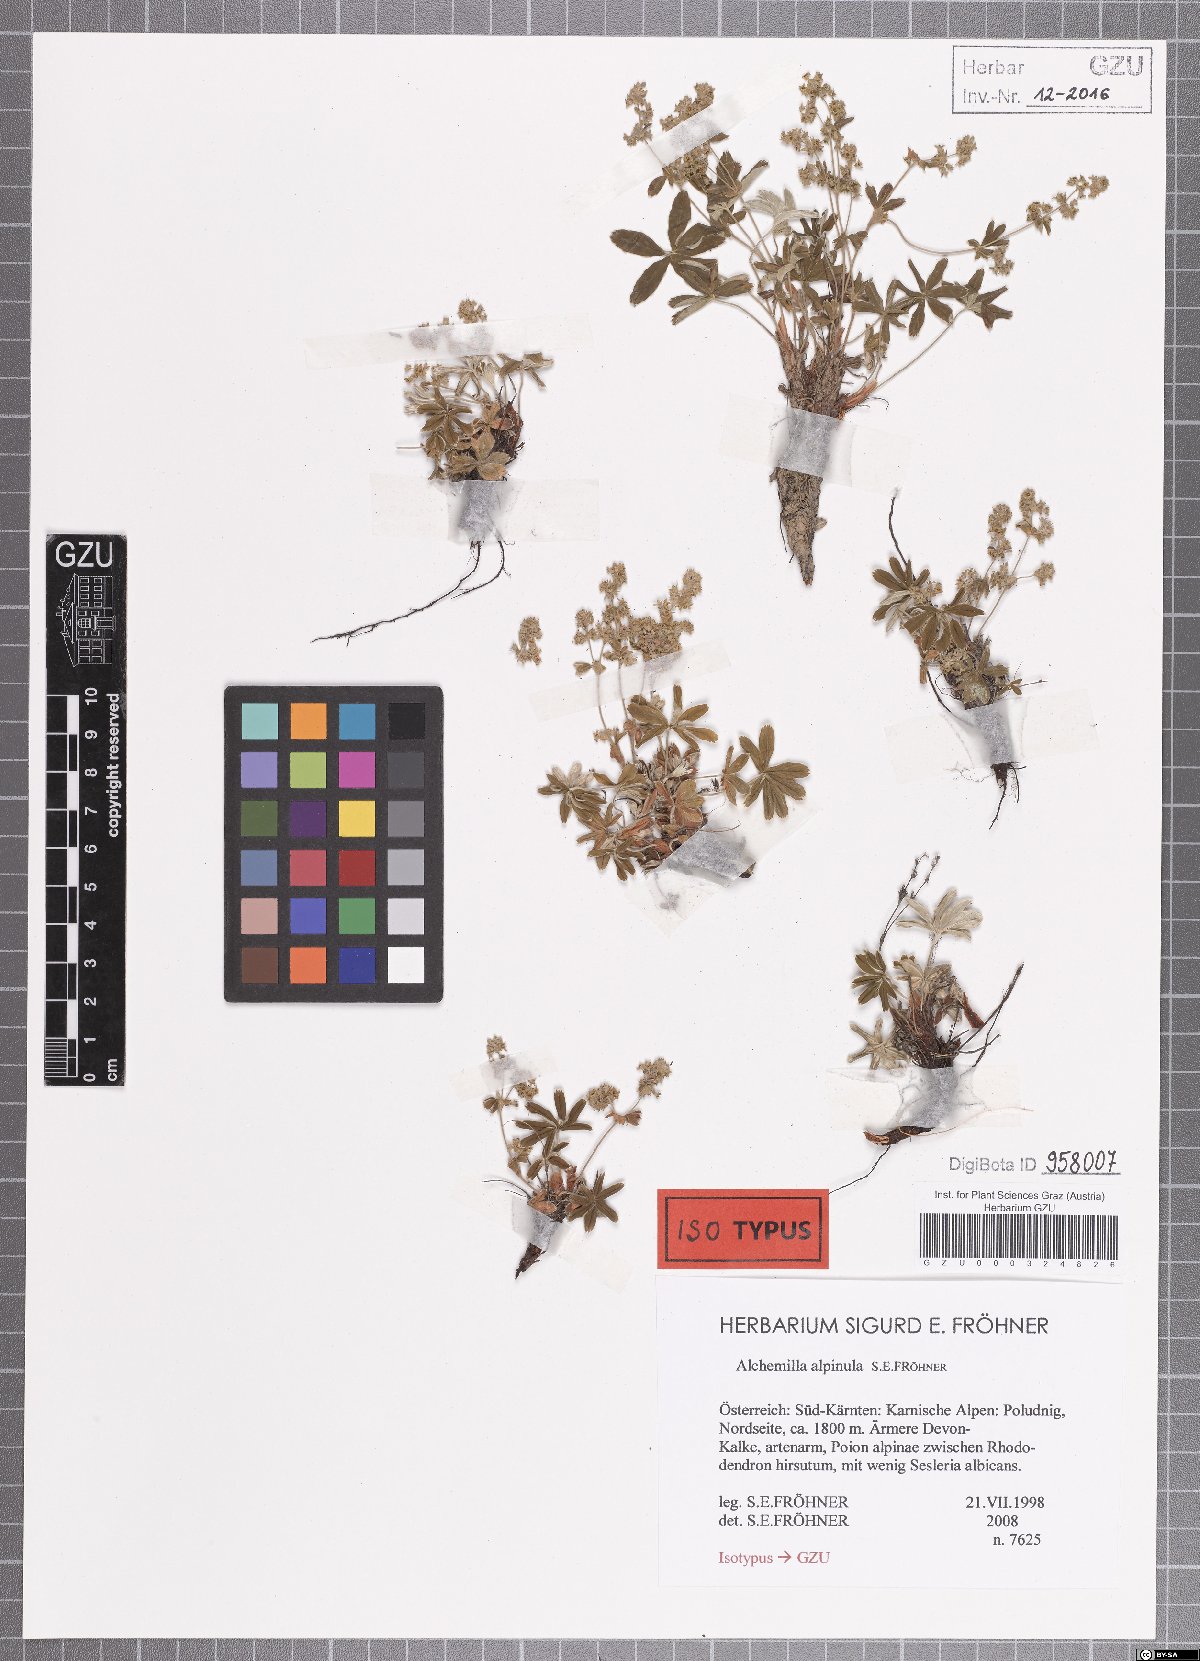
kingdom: Plantae
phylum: Tracheophyta
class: Magnoliopsida
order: Rosales
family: Rosaceae
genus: Alchemilla
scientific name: Alchemilla alpinula
